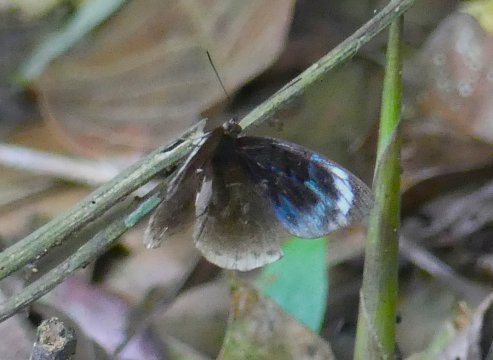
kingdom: Animalia
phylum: Arthropoda
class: Insecta
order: Lepidoptera
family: Nymphalidae
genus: Eunica
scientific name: Eunica chlororhoa
